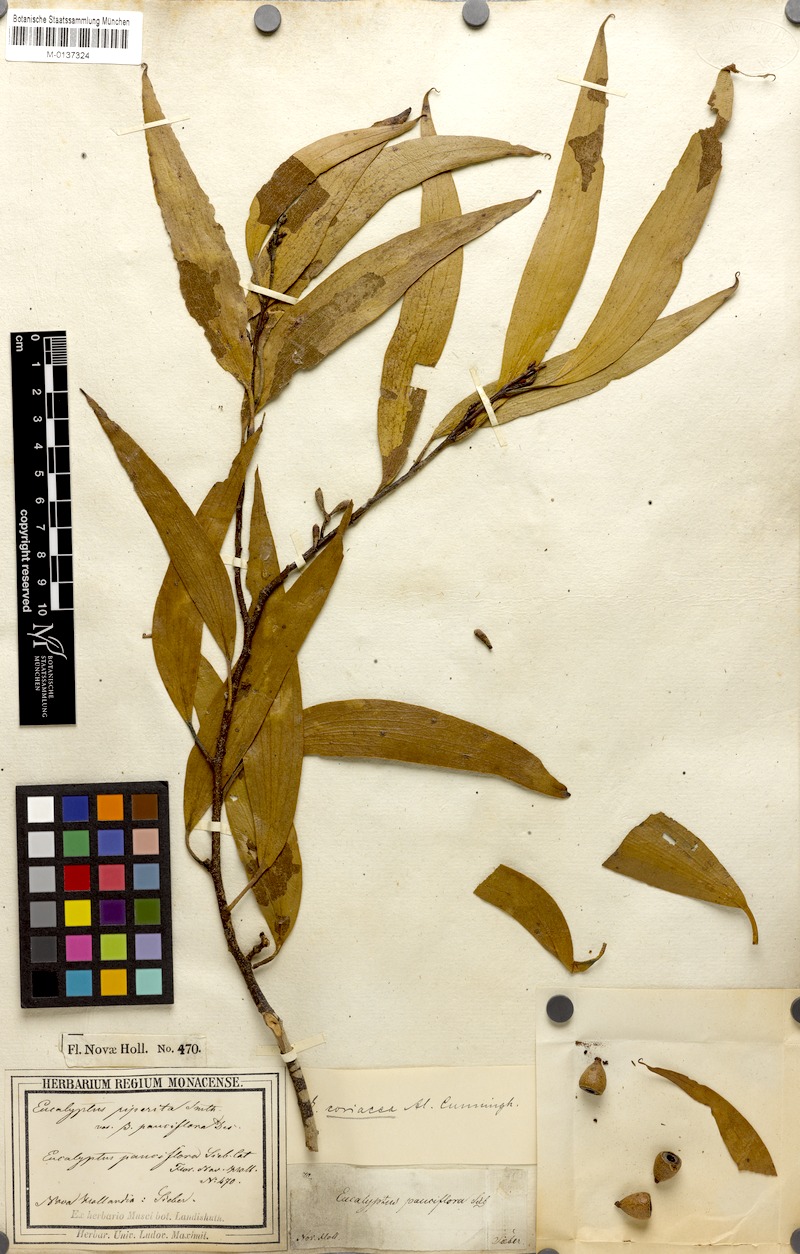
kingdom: Plantae
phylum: Tracheophyta
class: Magnoliopsida
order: Myrtales
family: Myrtaceae
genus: Eucalyptus
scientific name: Eucalyptus pauciflora
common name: Snow gum
